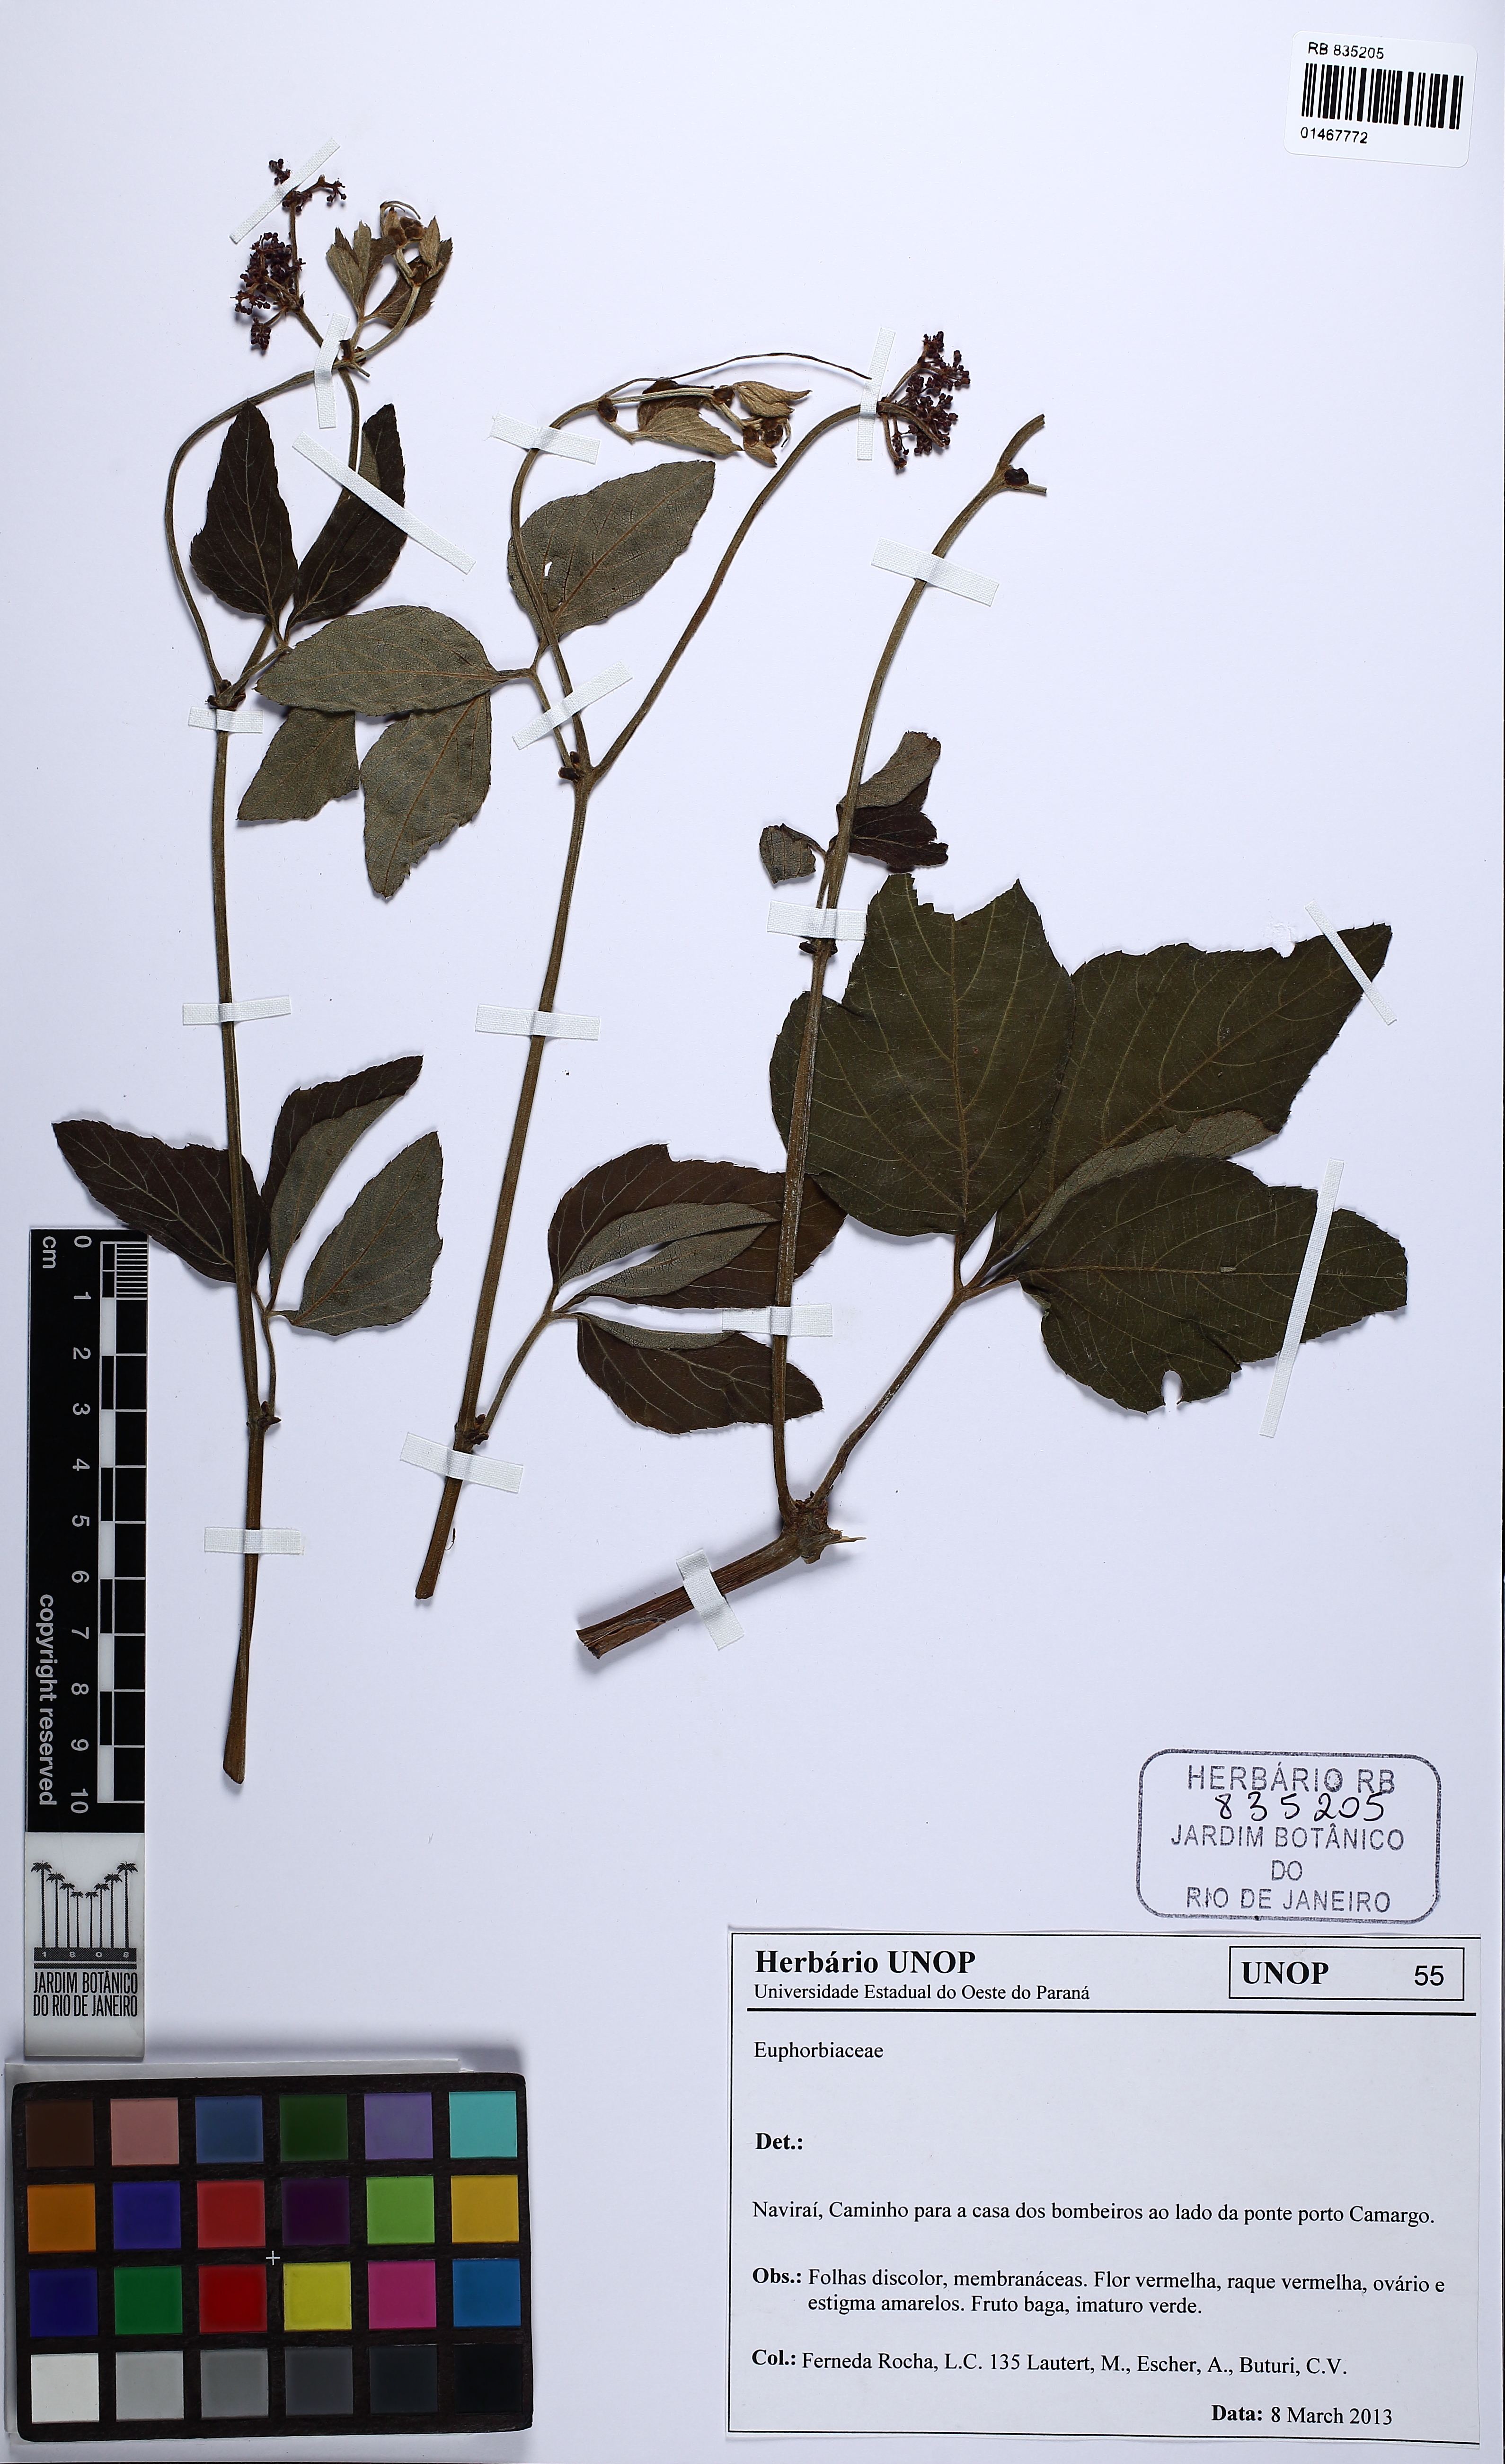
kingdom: Plantae
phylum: Tracheophyta
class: Magnoliopsida
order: Vitales
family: Vitaceae
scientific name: Vitaceae
